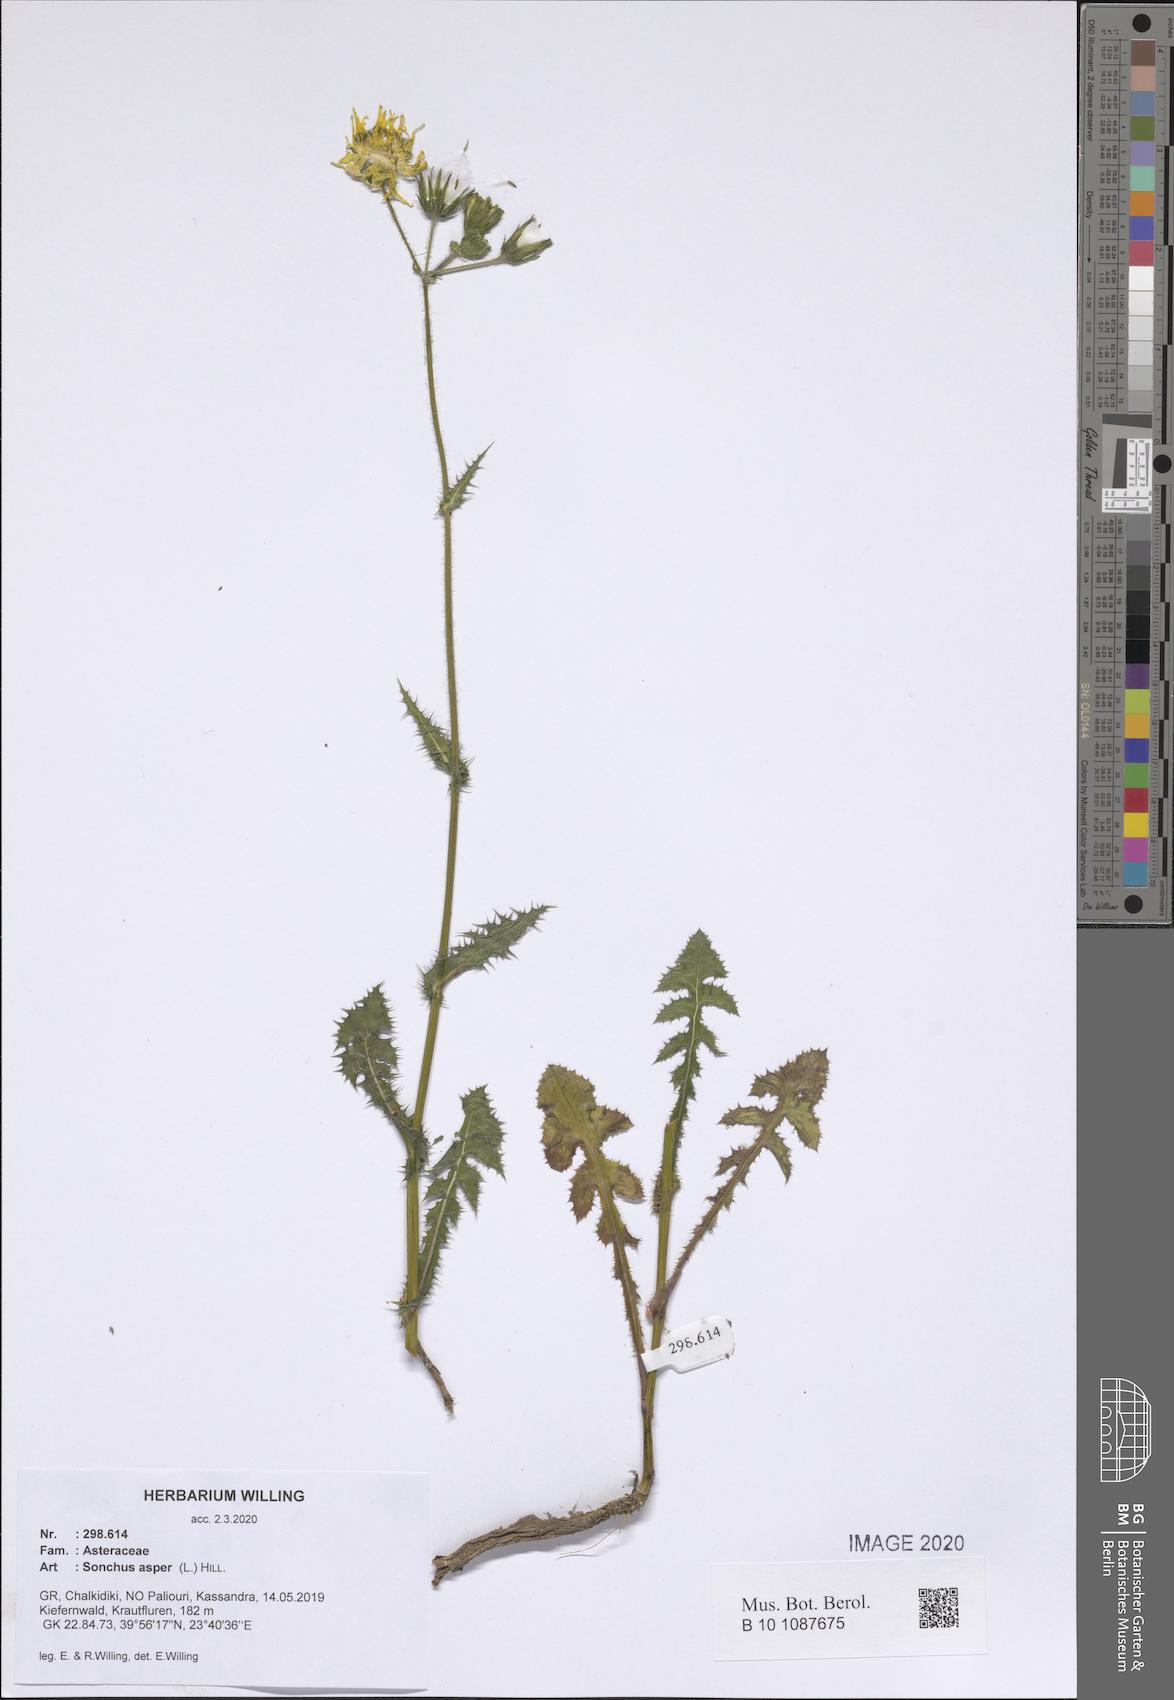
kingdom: Plantae
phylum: Tracheophyta
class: Magnoliopsida
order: Asterales
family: Asteraceae
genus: Sonchus
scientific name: Sonchus asper
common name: Prickly sow-thistle
